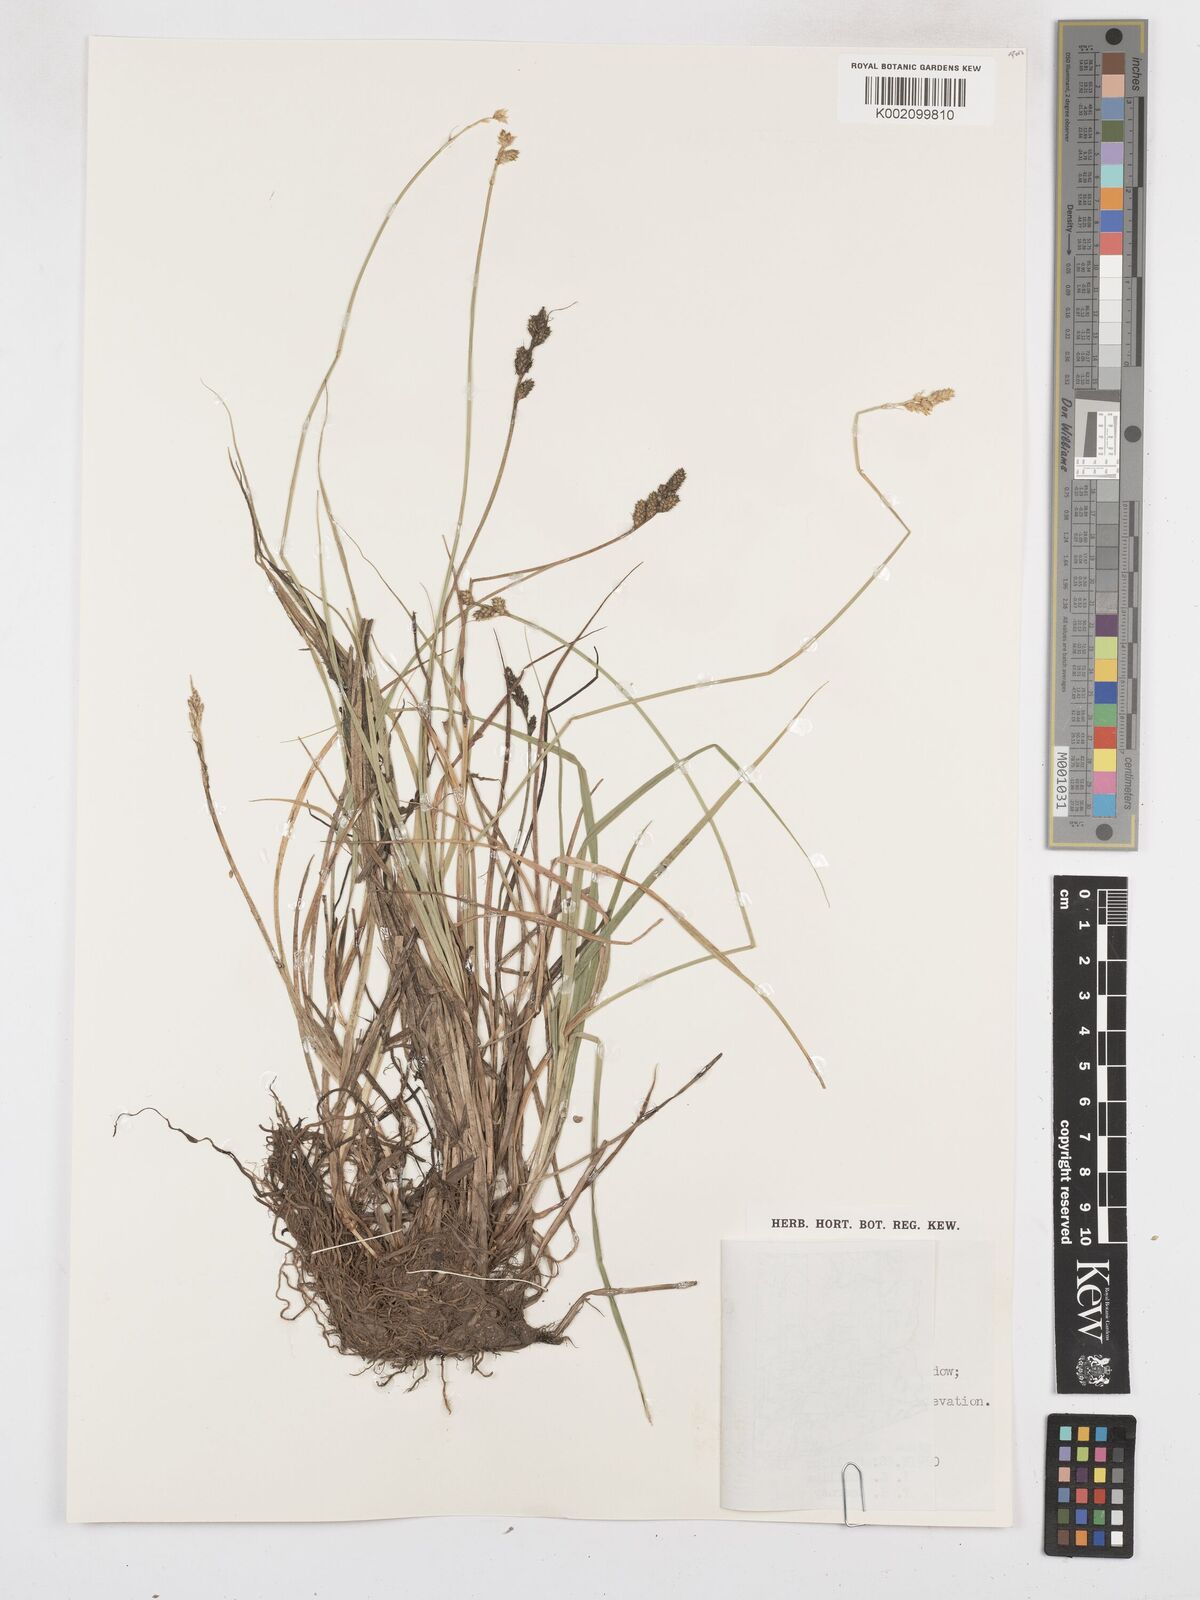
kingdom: Plantae
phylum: Tracheophyta
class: Liliopsida
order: Poales
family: Cyperaceae
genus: Carex
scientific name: Carex curta
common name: White sedge
